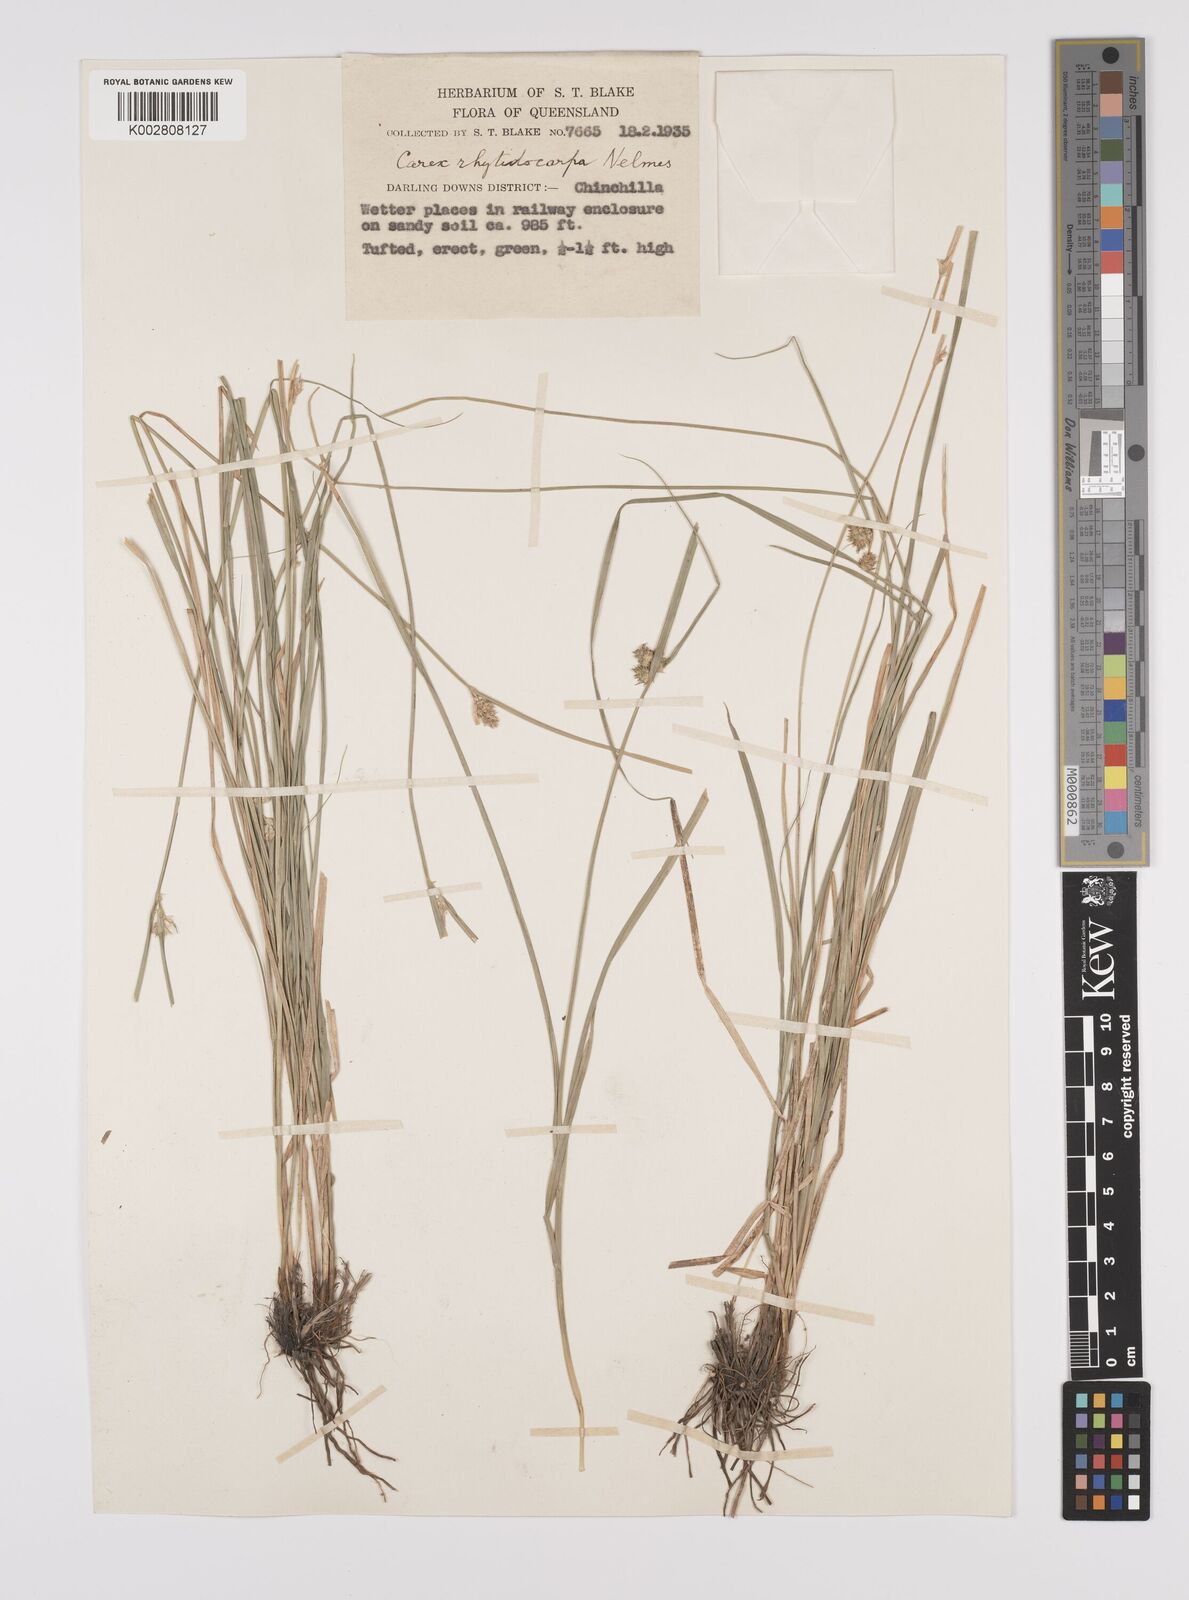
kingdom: Plantae
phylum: Tracheophyta
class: Liliopsida
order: Poales
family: Cyperaceae
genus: Carex
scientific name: Carex inversa
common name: Knob sedge
